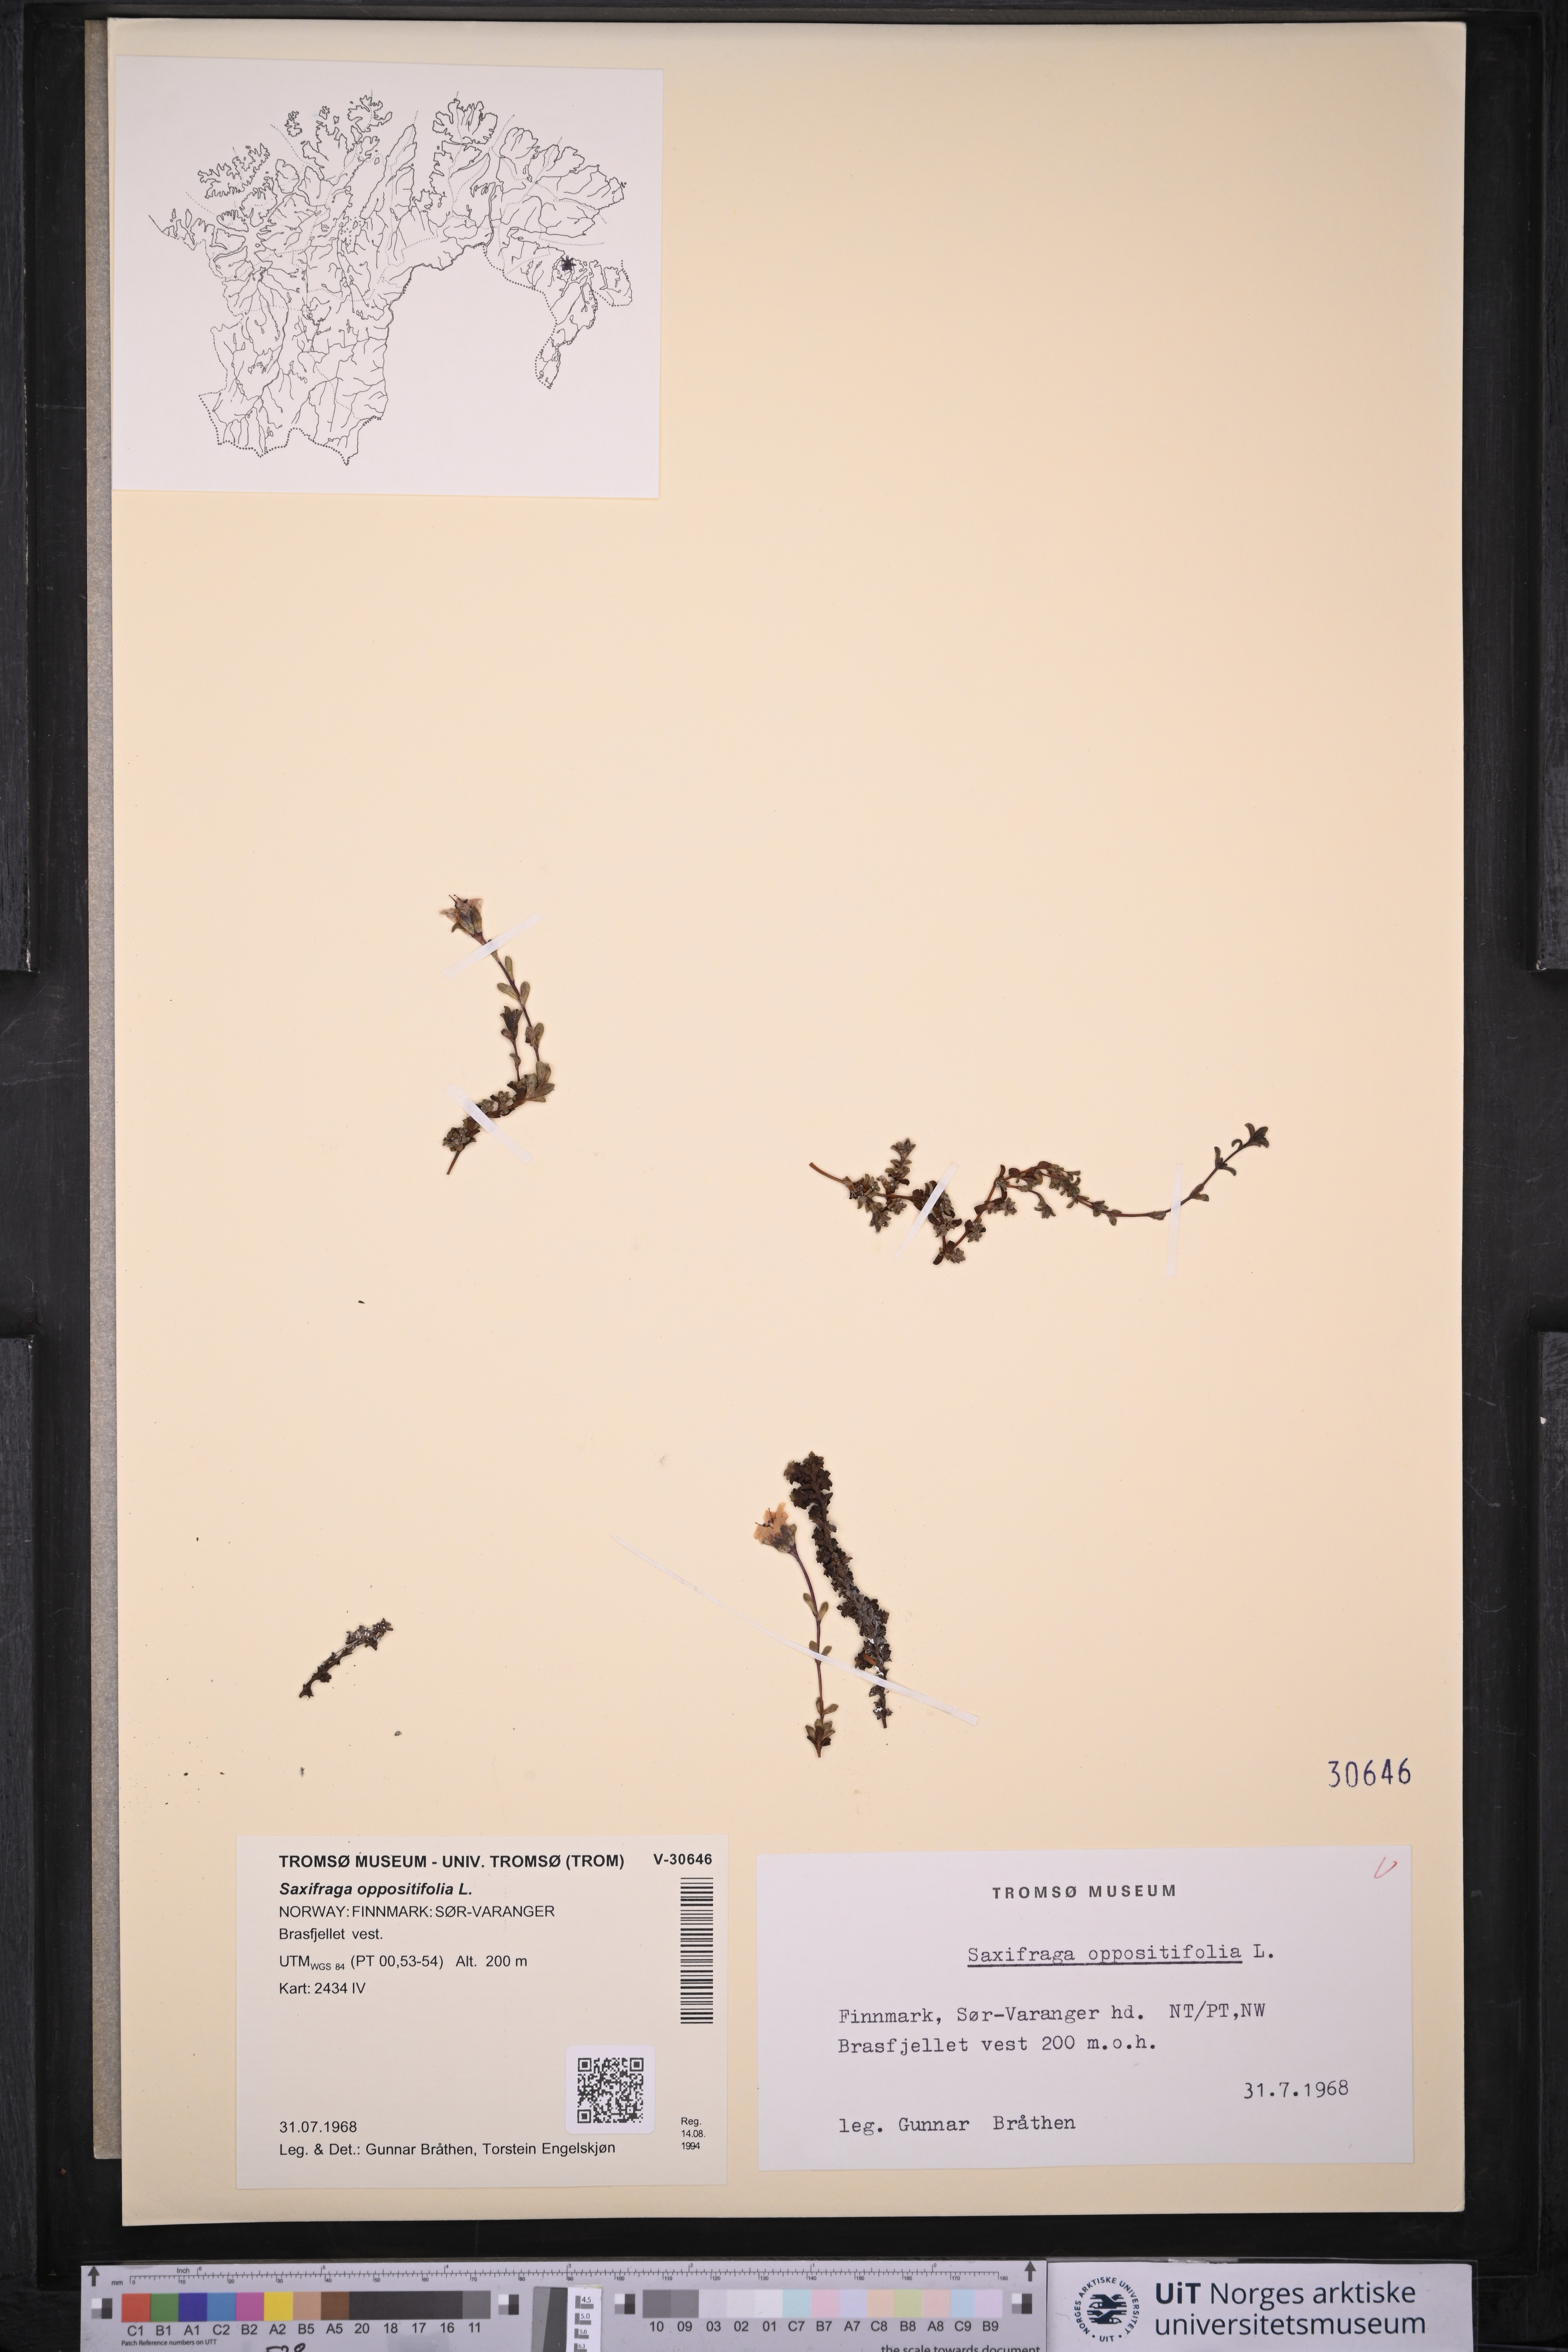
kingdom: Plantae
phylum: Tracheophyta
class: Magnoliopsida
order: Saxifragales
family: Saxifragaceae
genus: Saxifraga
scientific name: Saxifraga oppositifolia
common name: Purple saxifrage
